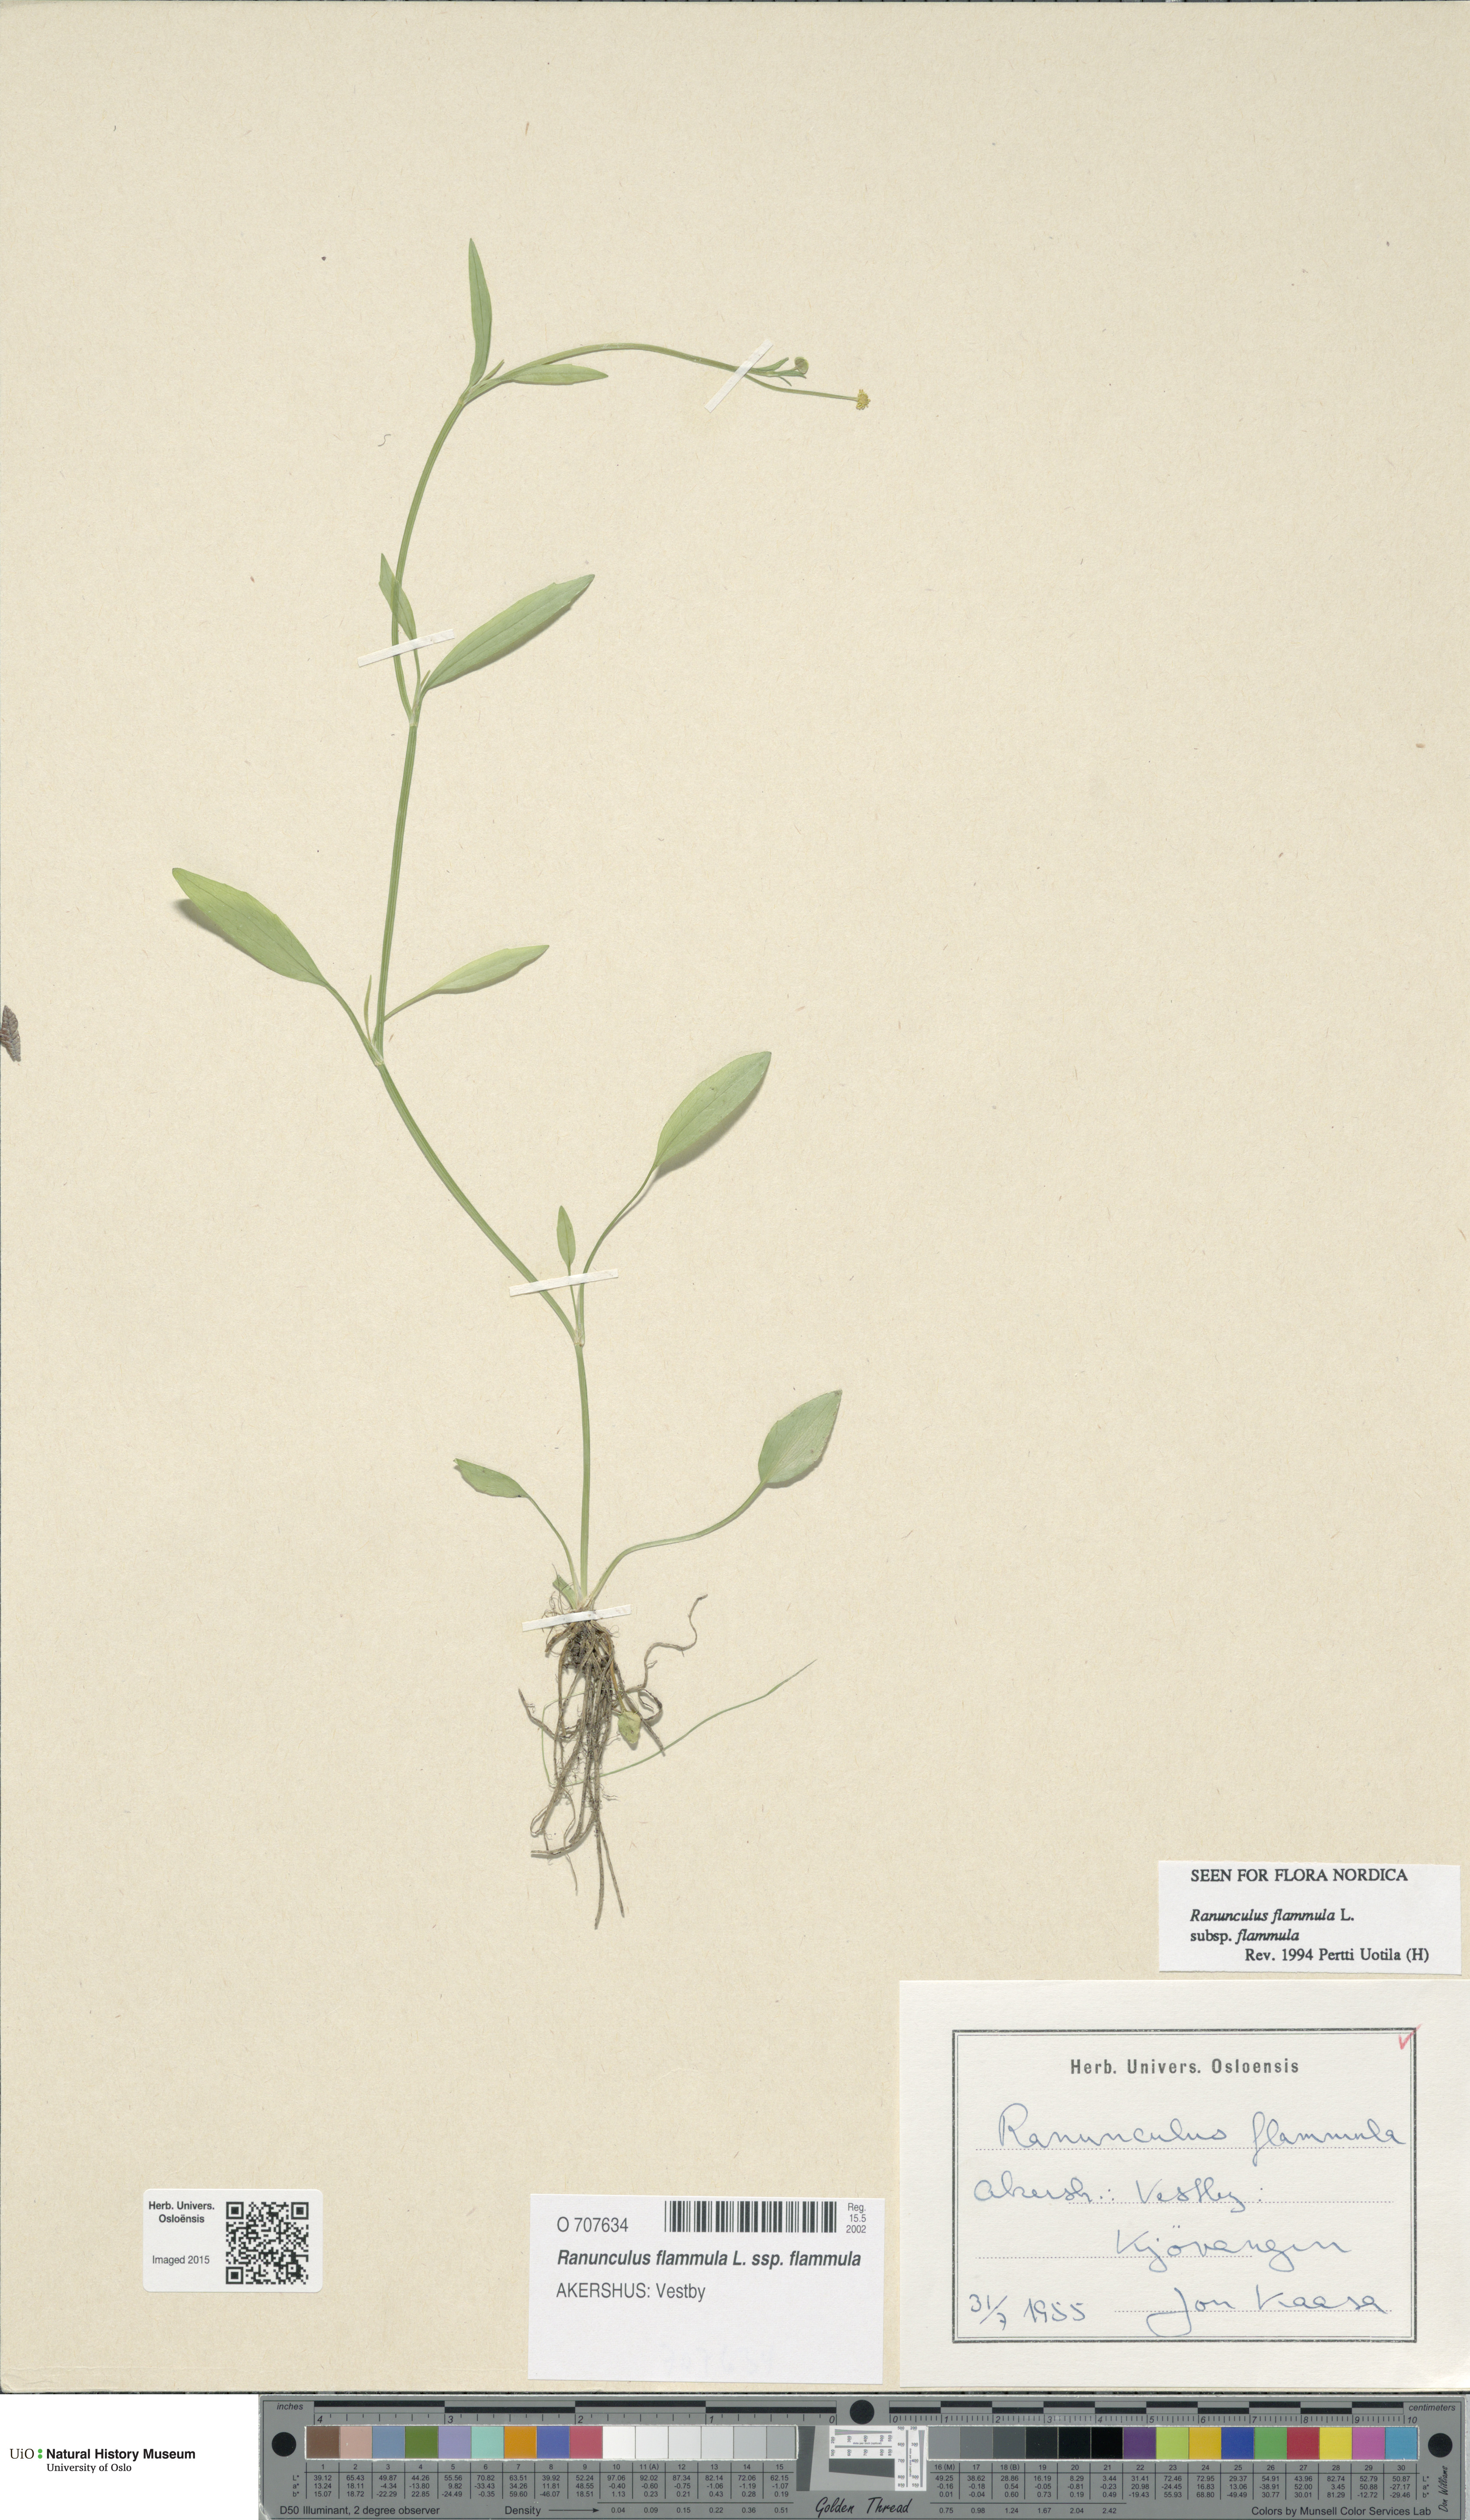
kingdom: Plantae
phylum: Tracheophyta
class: Magnoliopsida
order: Ranunculales
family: Ranunculaceae
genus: Ranunculus
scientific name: Ranunculus flammula
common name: Lesser spearwort
